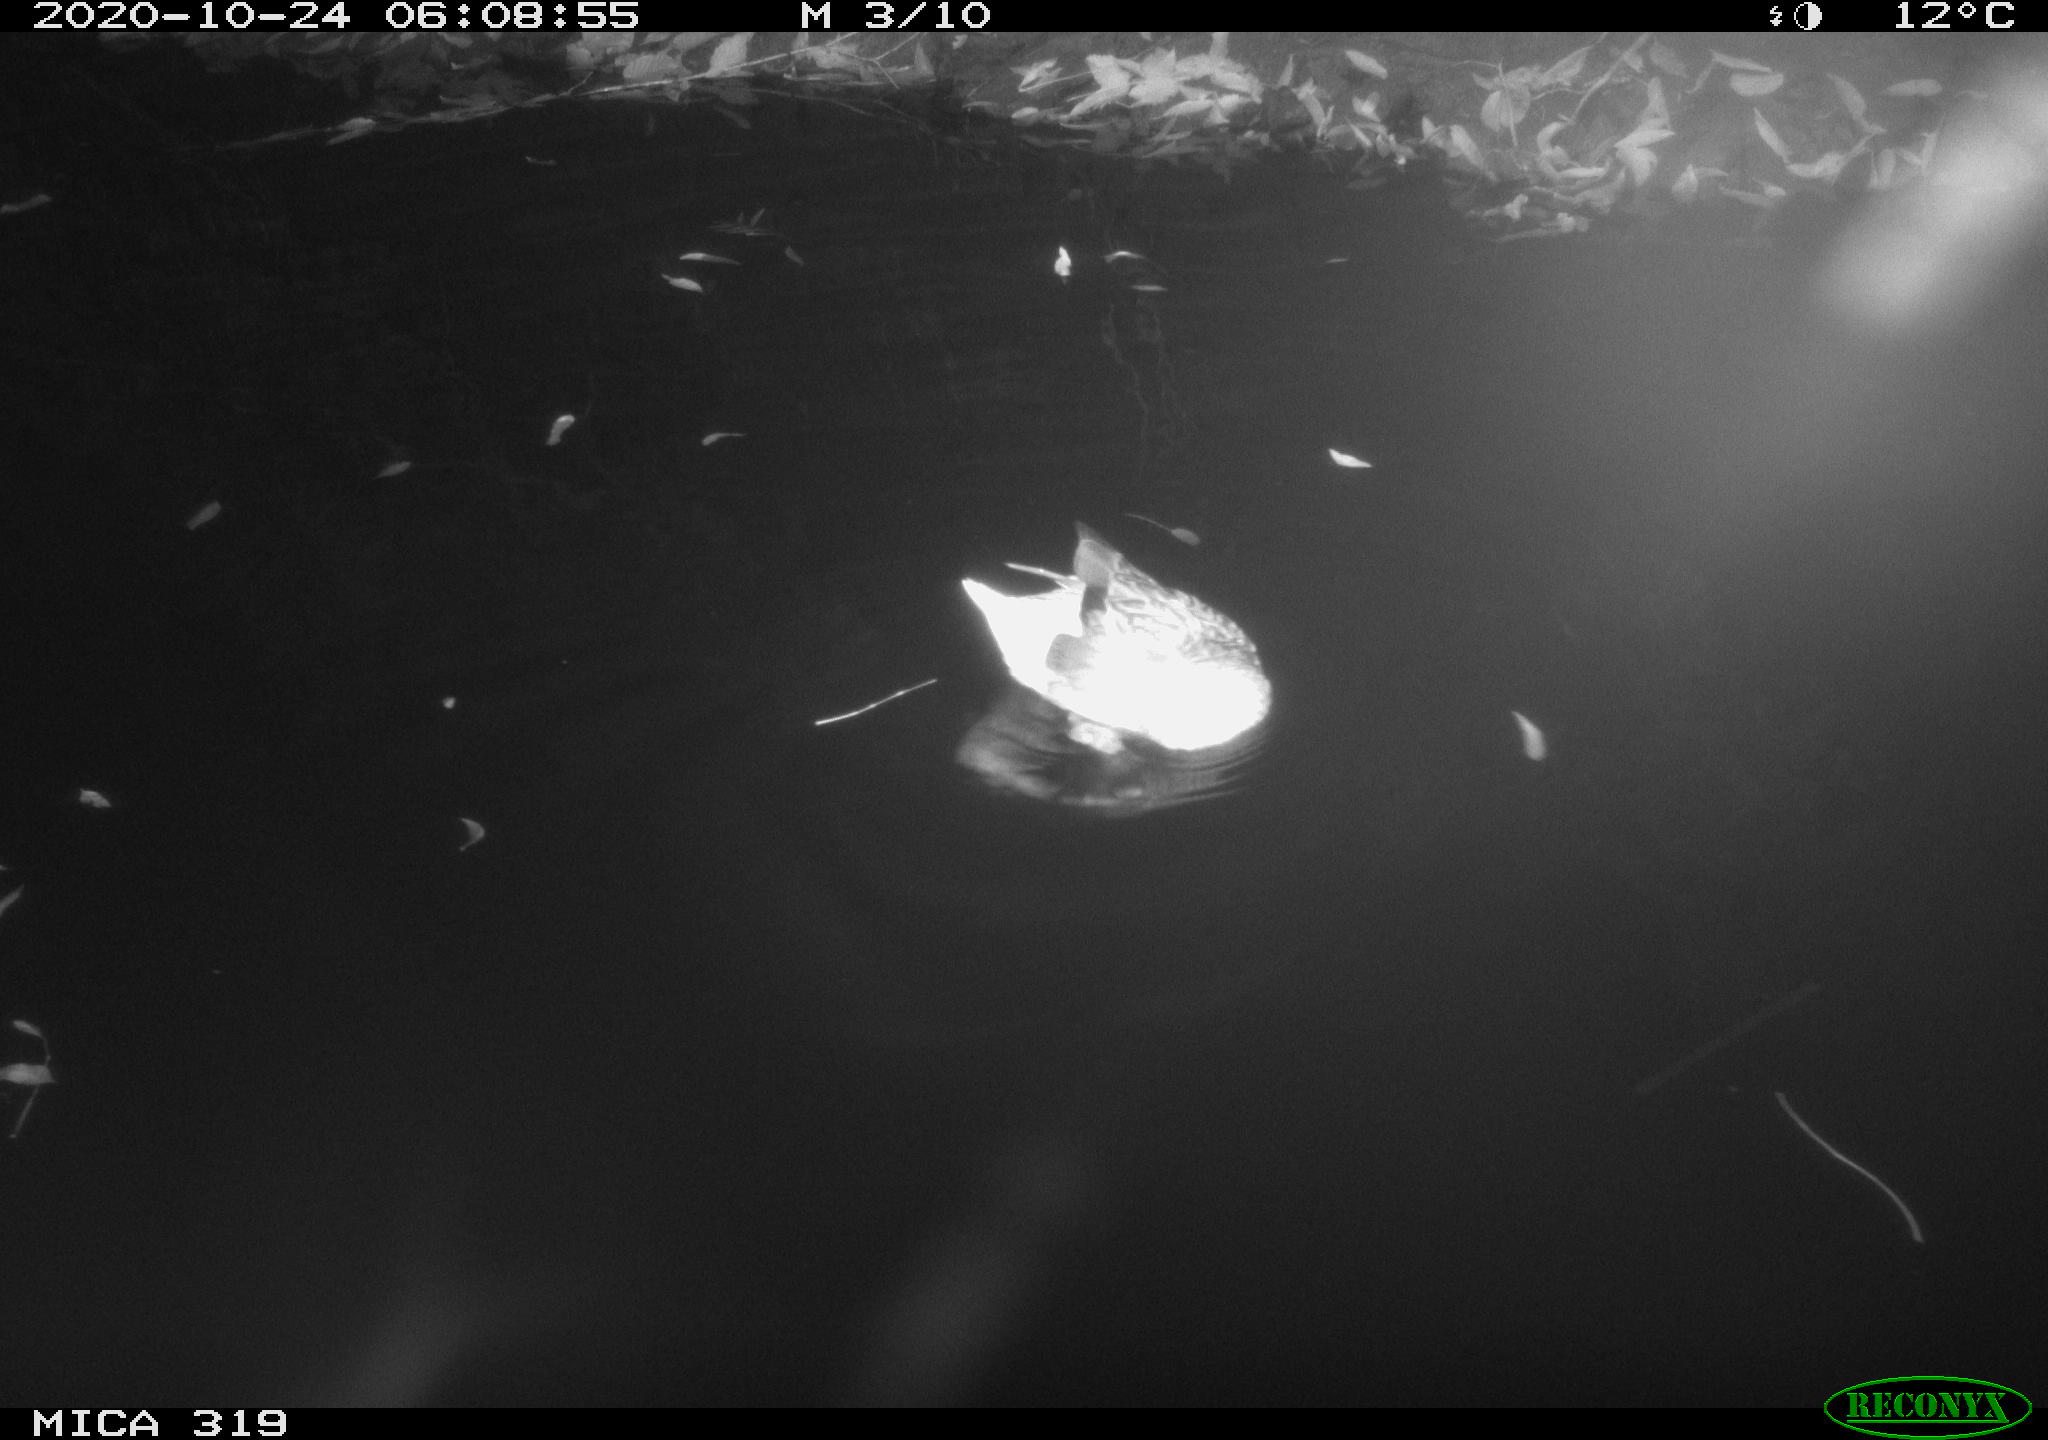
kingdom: Animalia
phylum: Chordata
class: Aves
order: Anseriformes
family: Anatidae
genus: Anas
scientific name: Anas platyrhynchos
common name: Mallard
